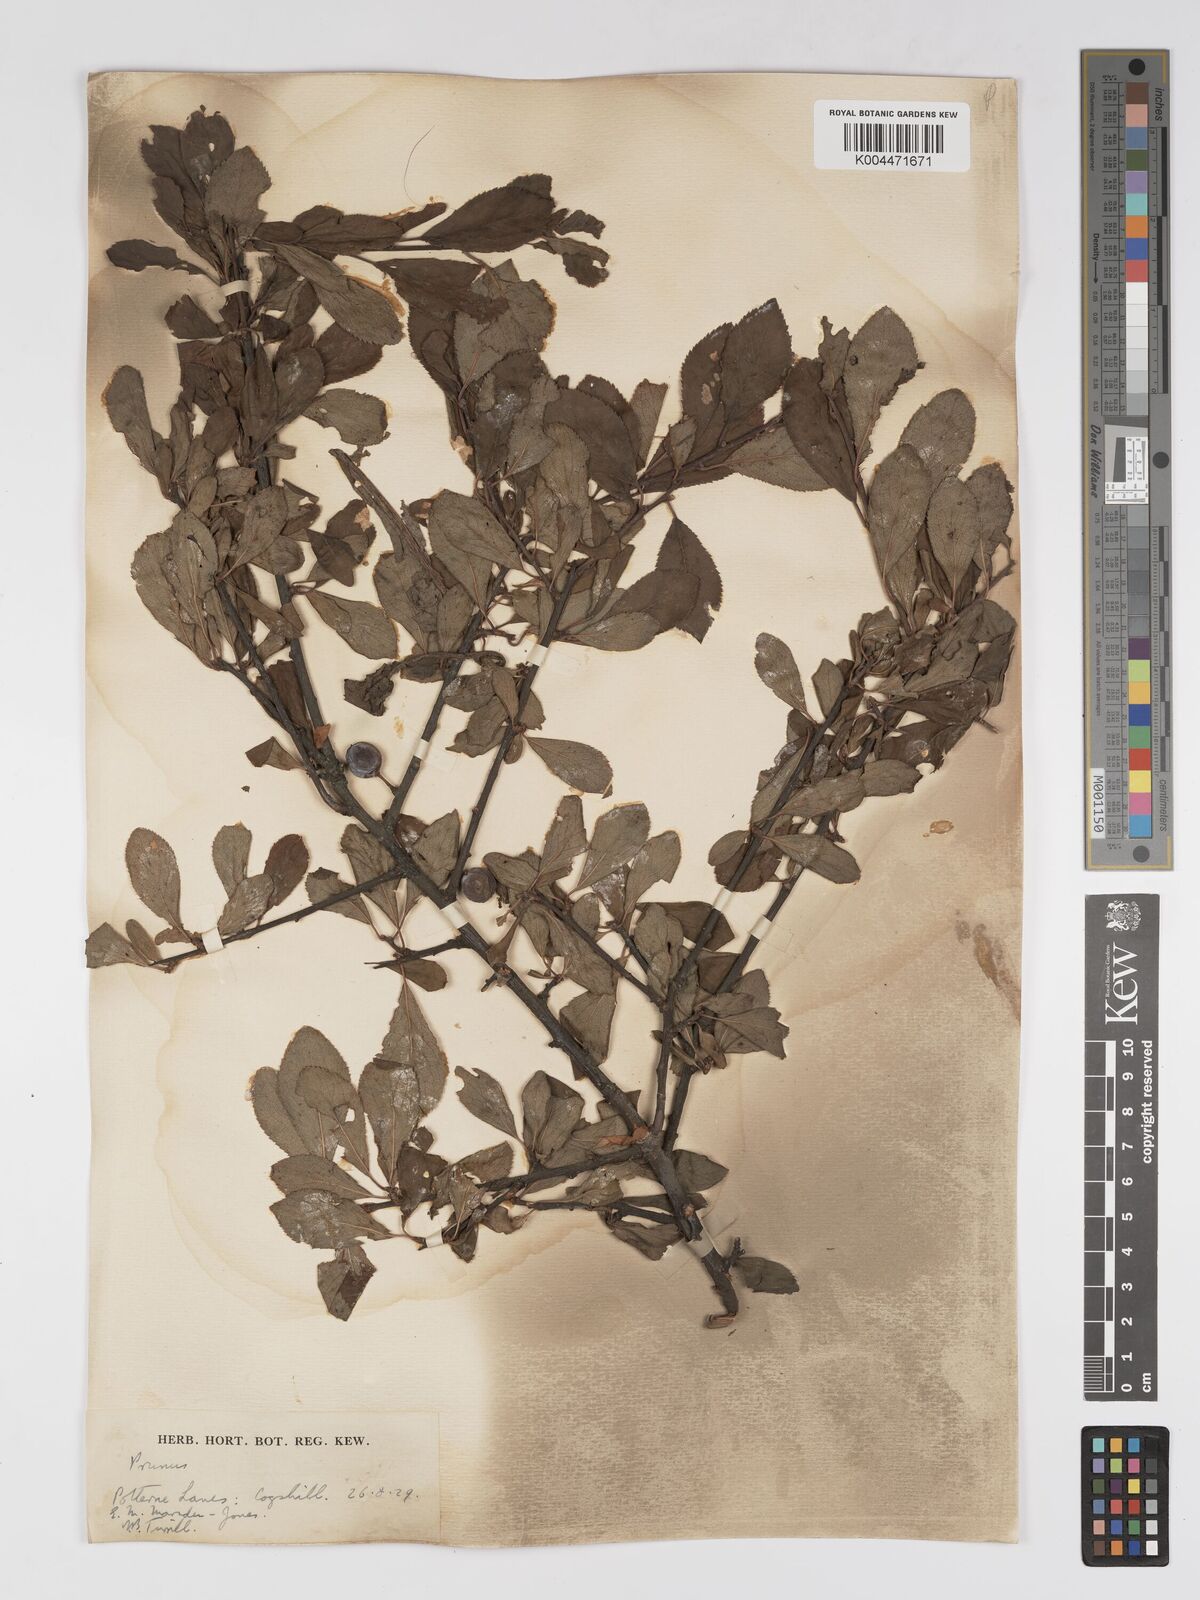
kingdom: Plantae
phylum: Tracheophyta
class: Magnoliopsida
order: Rosales
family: Rosaceae
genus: Prunus
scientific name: Prunus
